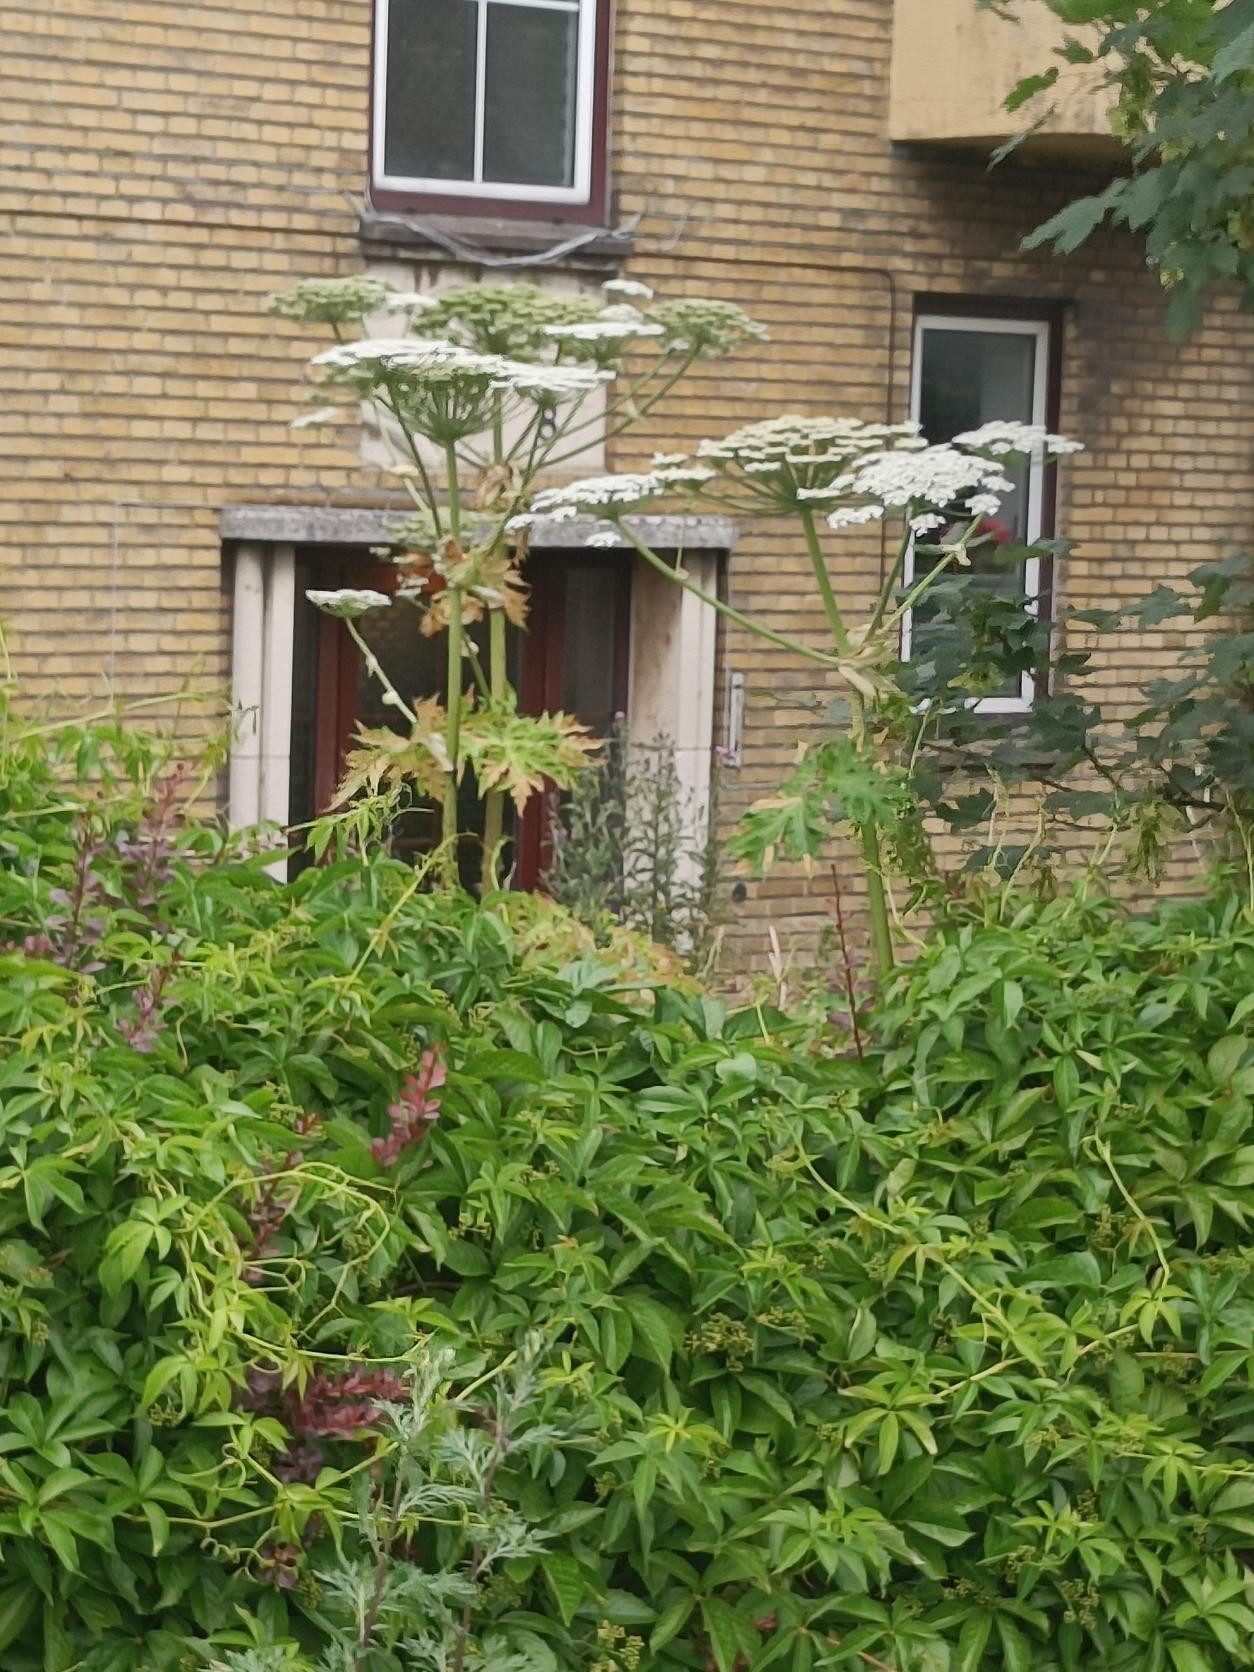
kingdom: Plantae
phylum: Tracheophyta
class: Magnoliopsida
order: Apiales
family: Apiaceae
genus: Heracleum
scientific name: Heracleum mantegazzianum
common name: Kæmpe-bjørneklo
